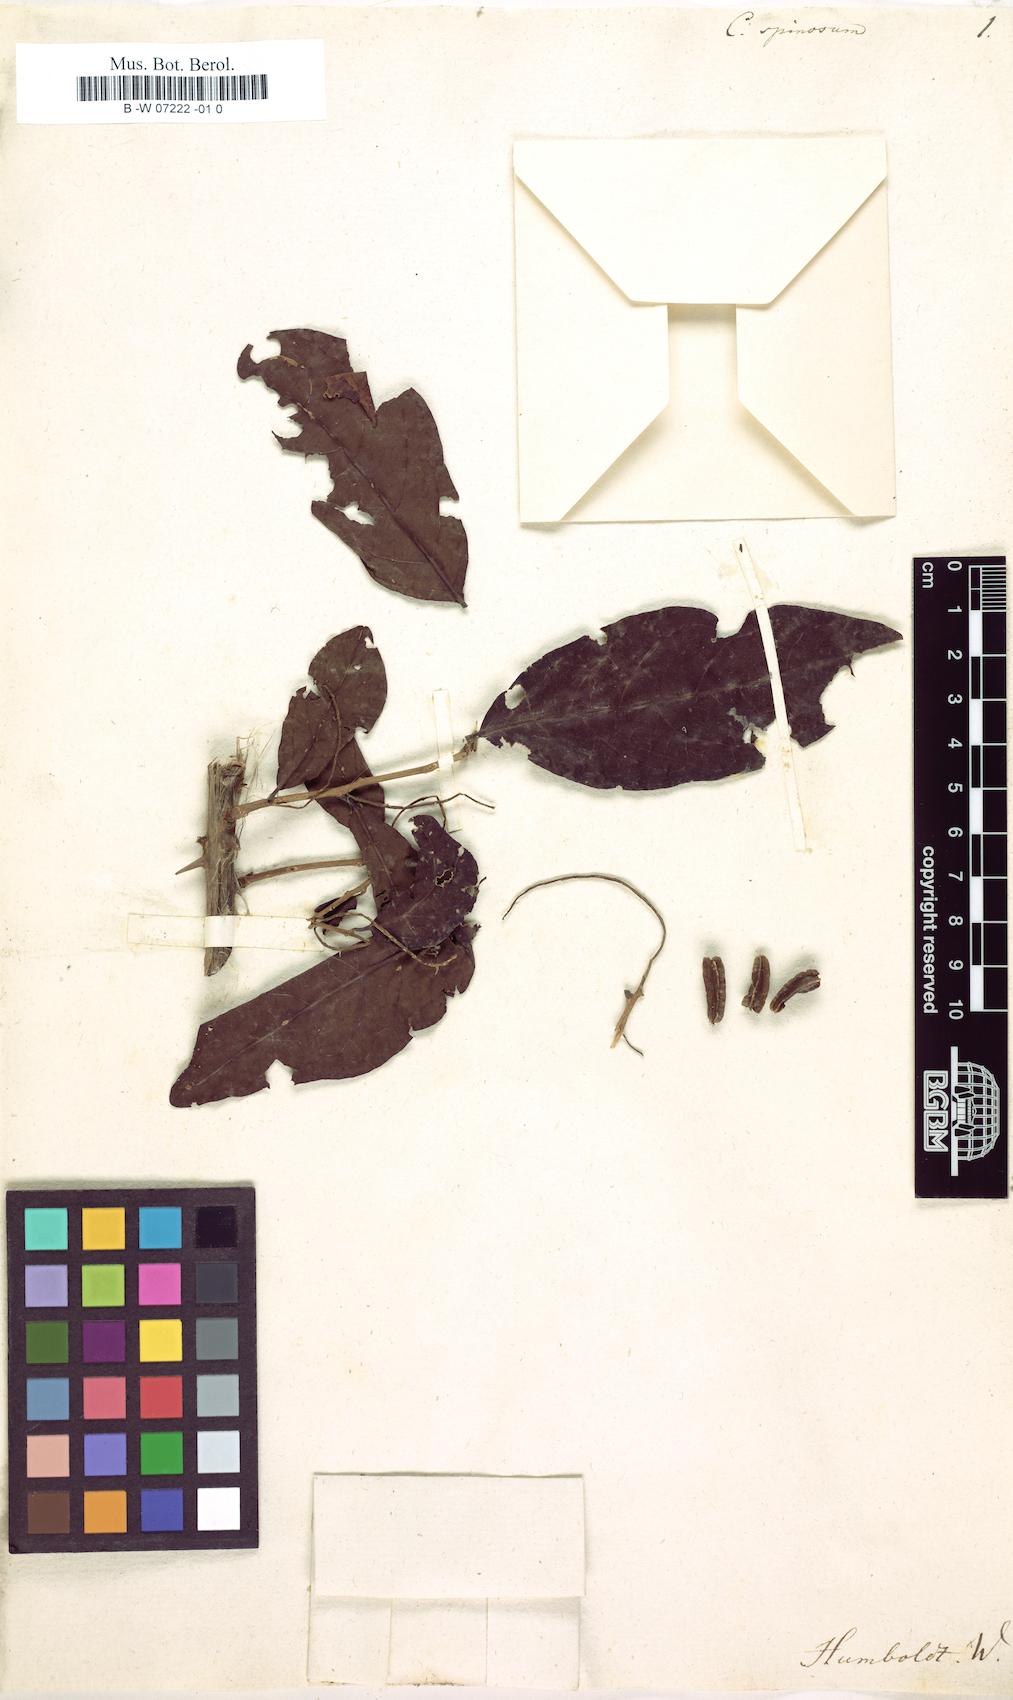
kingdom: Plantae
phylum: Tracheophyta
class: Magnoliopsida
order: Myrtales
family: Combretaceae
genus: Combretum
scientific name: Combretum spinosum
